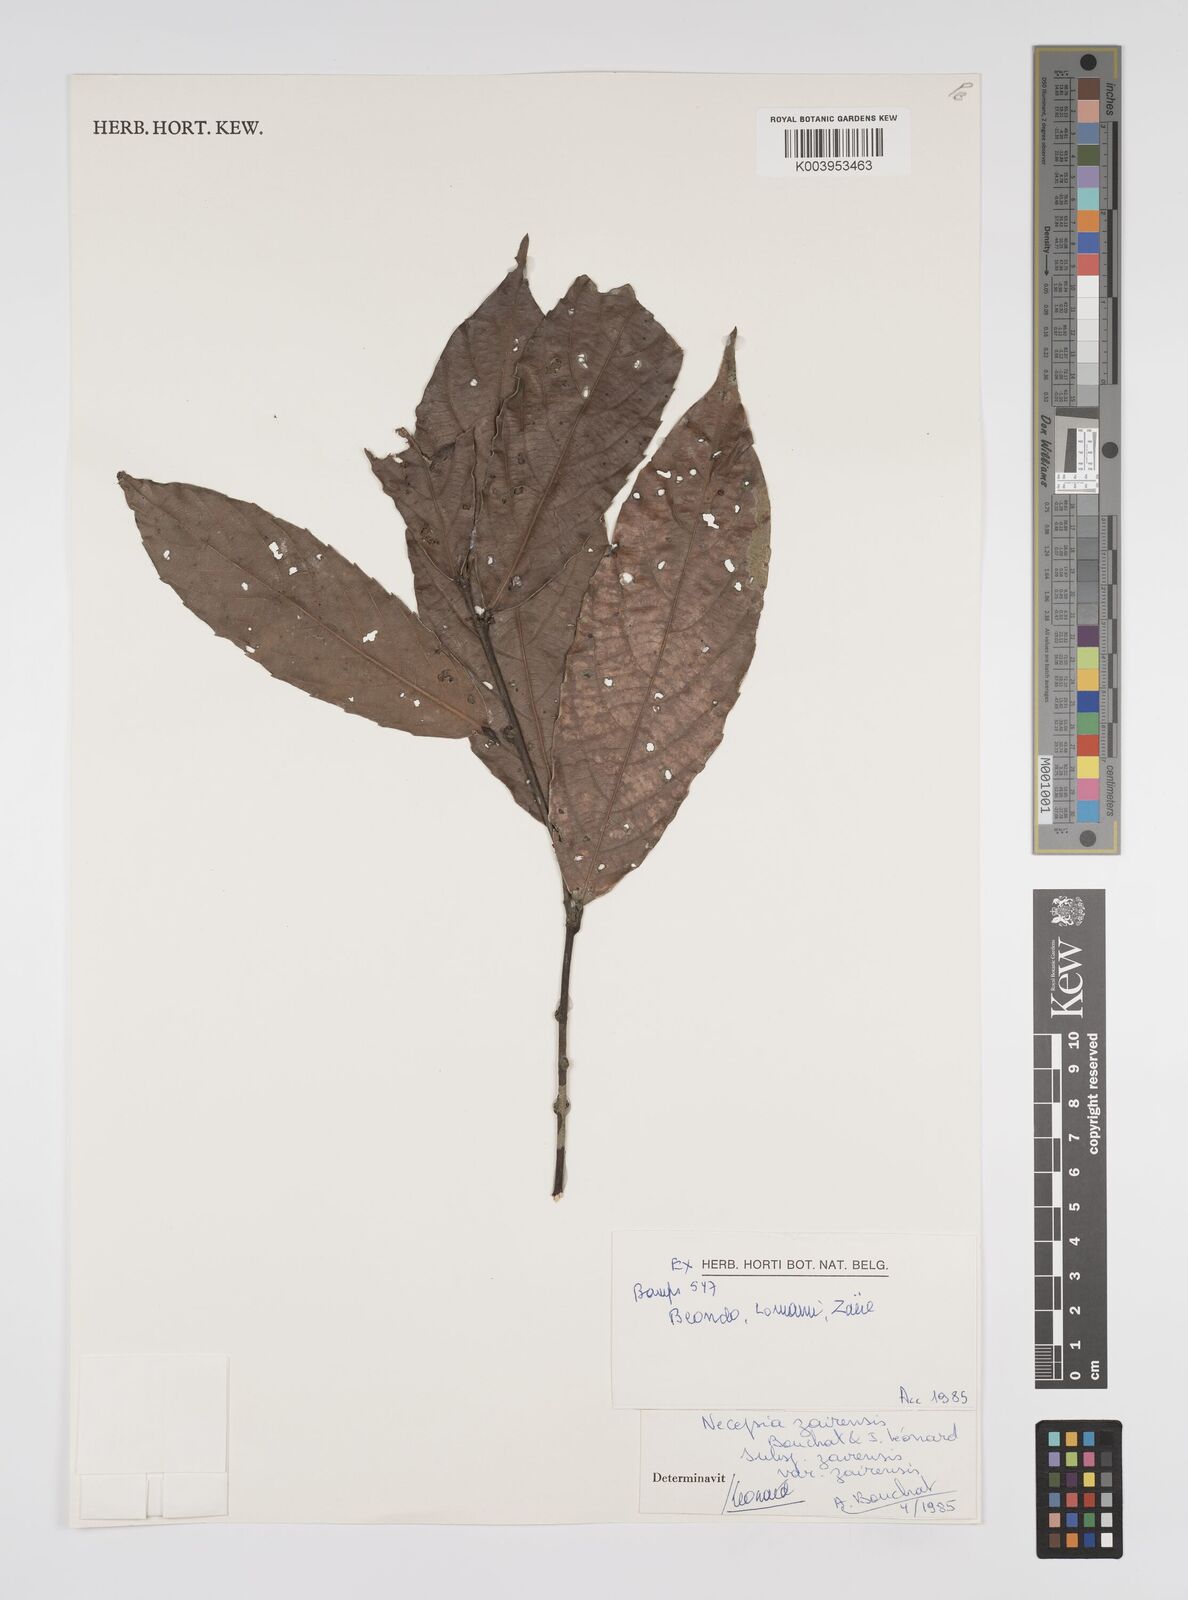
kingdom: Plantae
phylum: Tracheophyta
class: Magnoliopsida
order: Malpighiales
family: Euphorbiaceae
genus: Necepsia
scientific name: Necepsia zairensis
